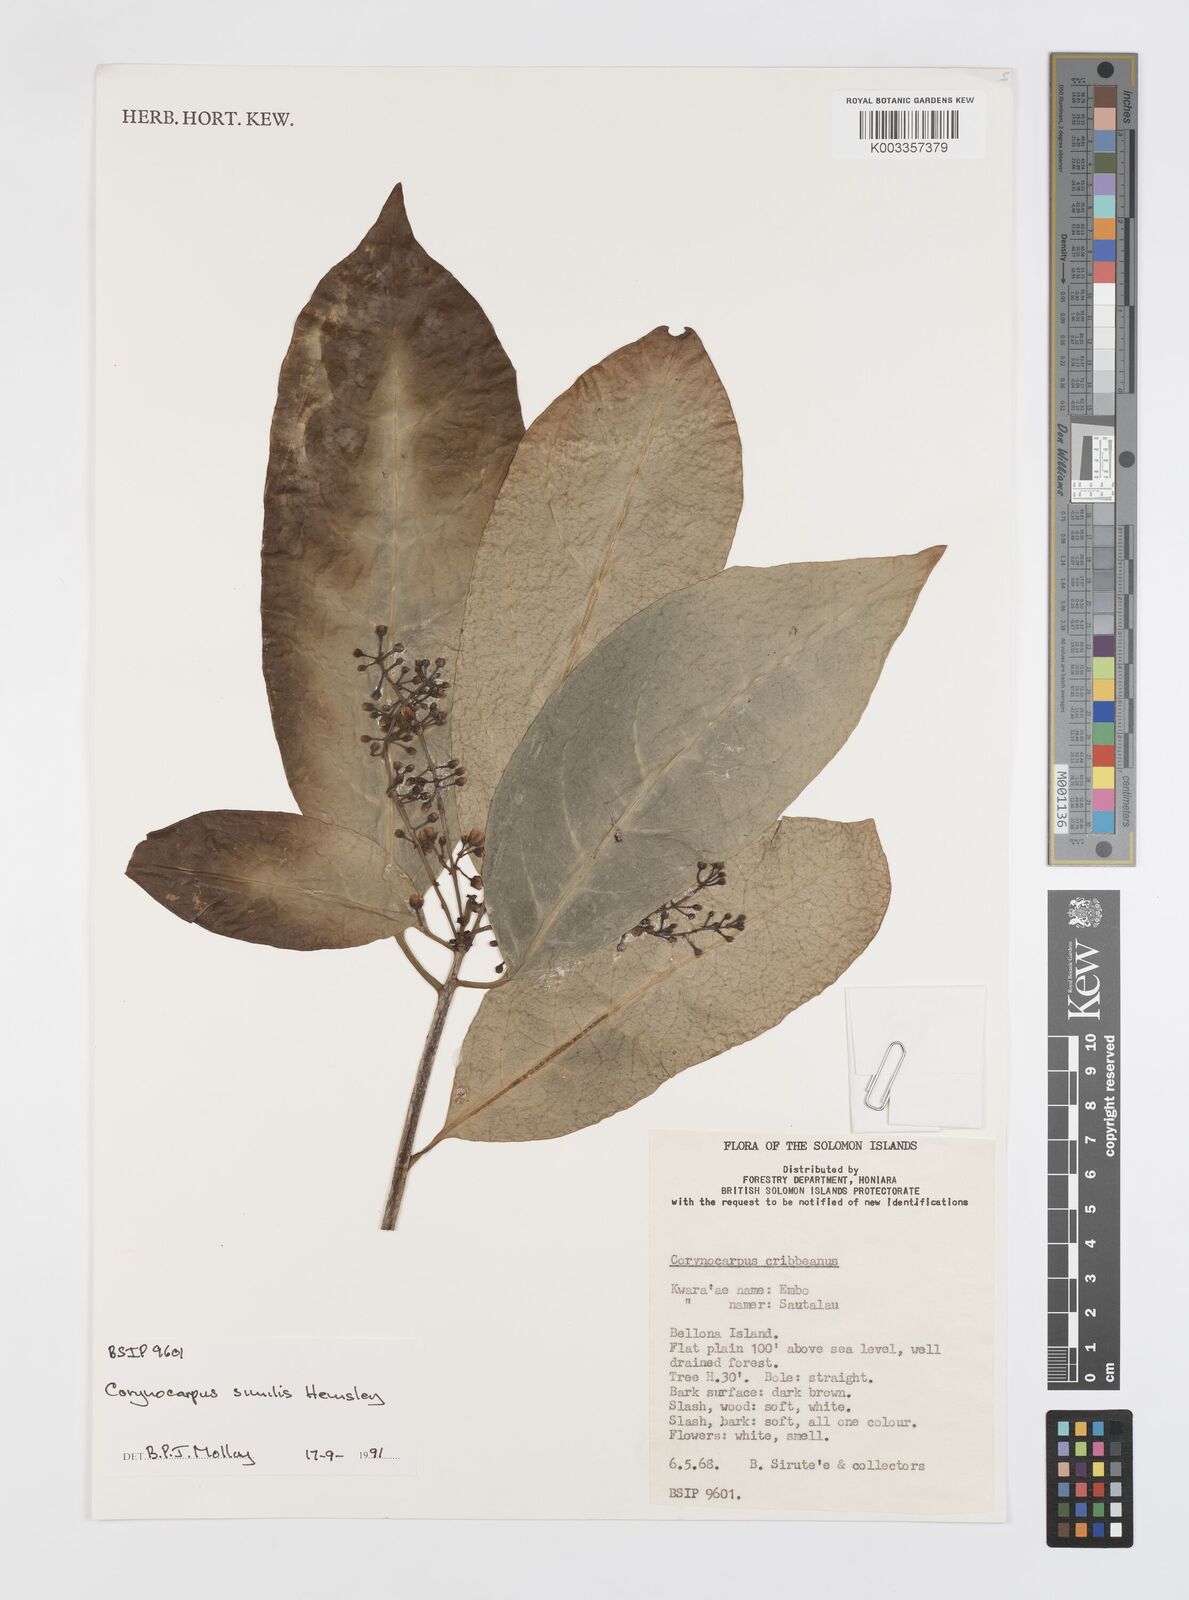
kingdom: Plantae
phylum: Tracheophyta
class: Magnoliopsida
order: Cucurbitales
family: Corynocarpaceae
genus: Corynocarpus
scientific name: Corynocarpus similis
